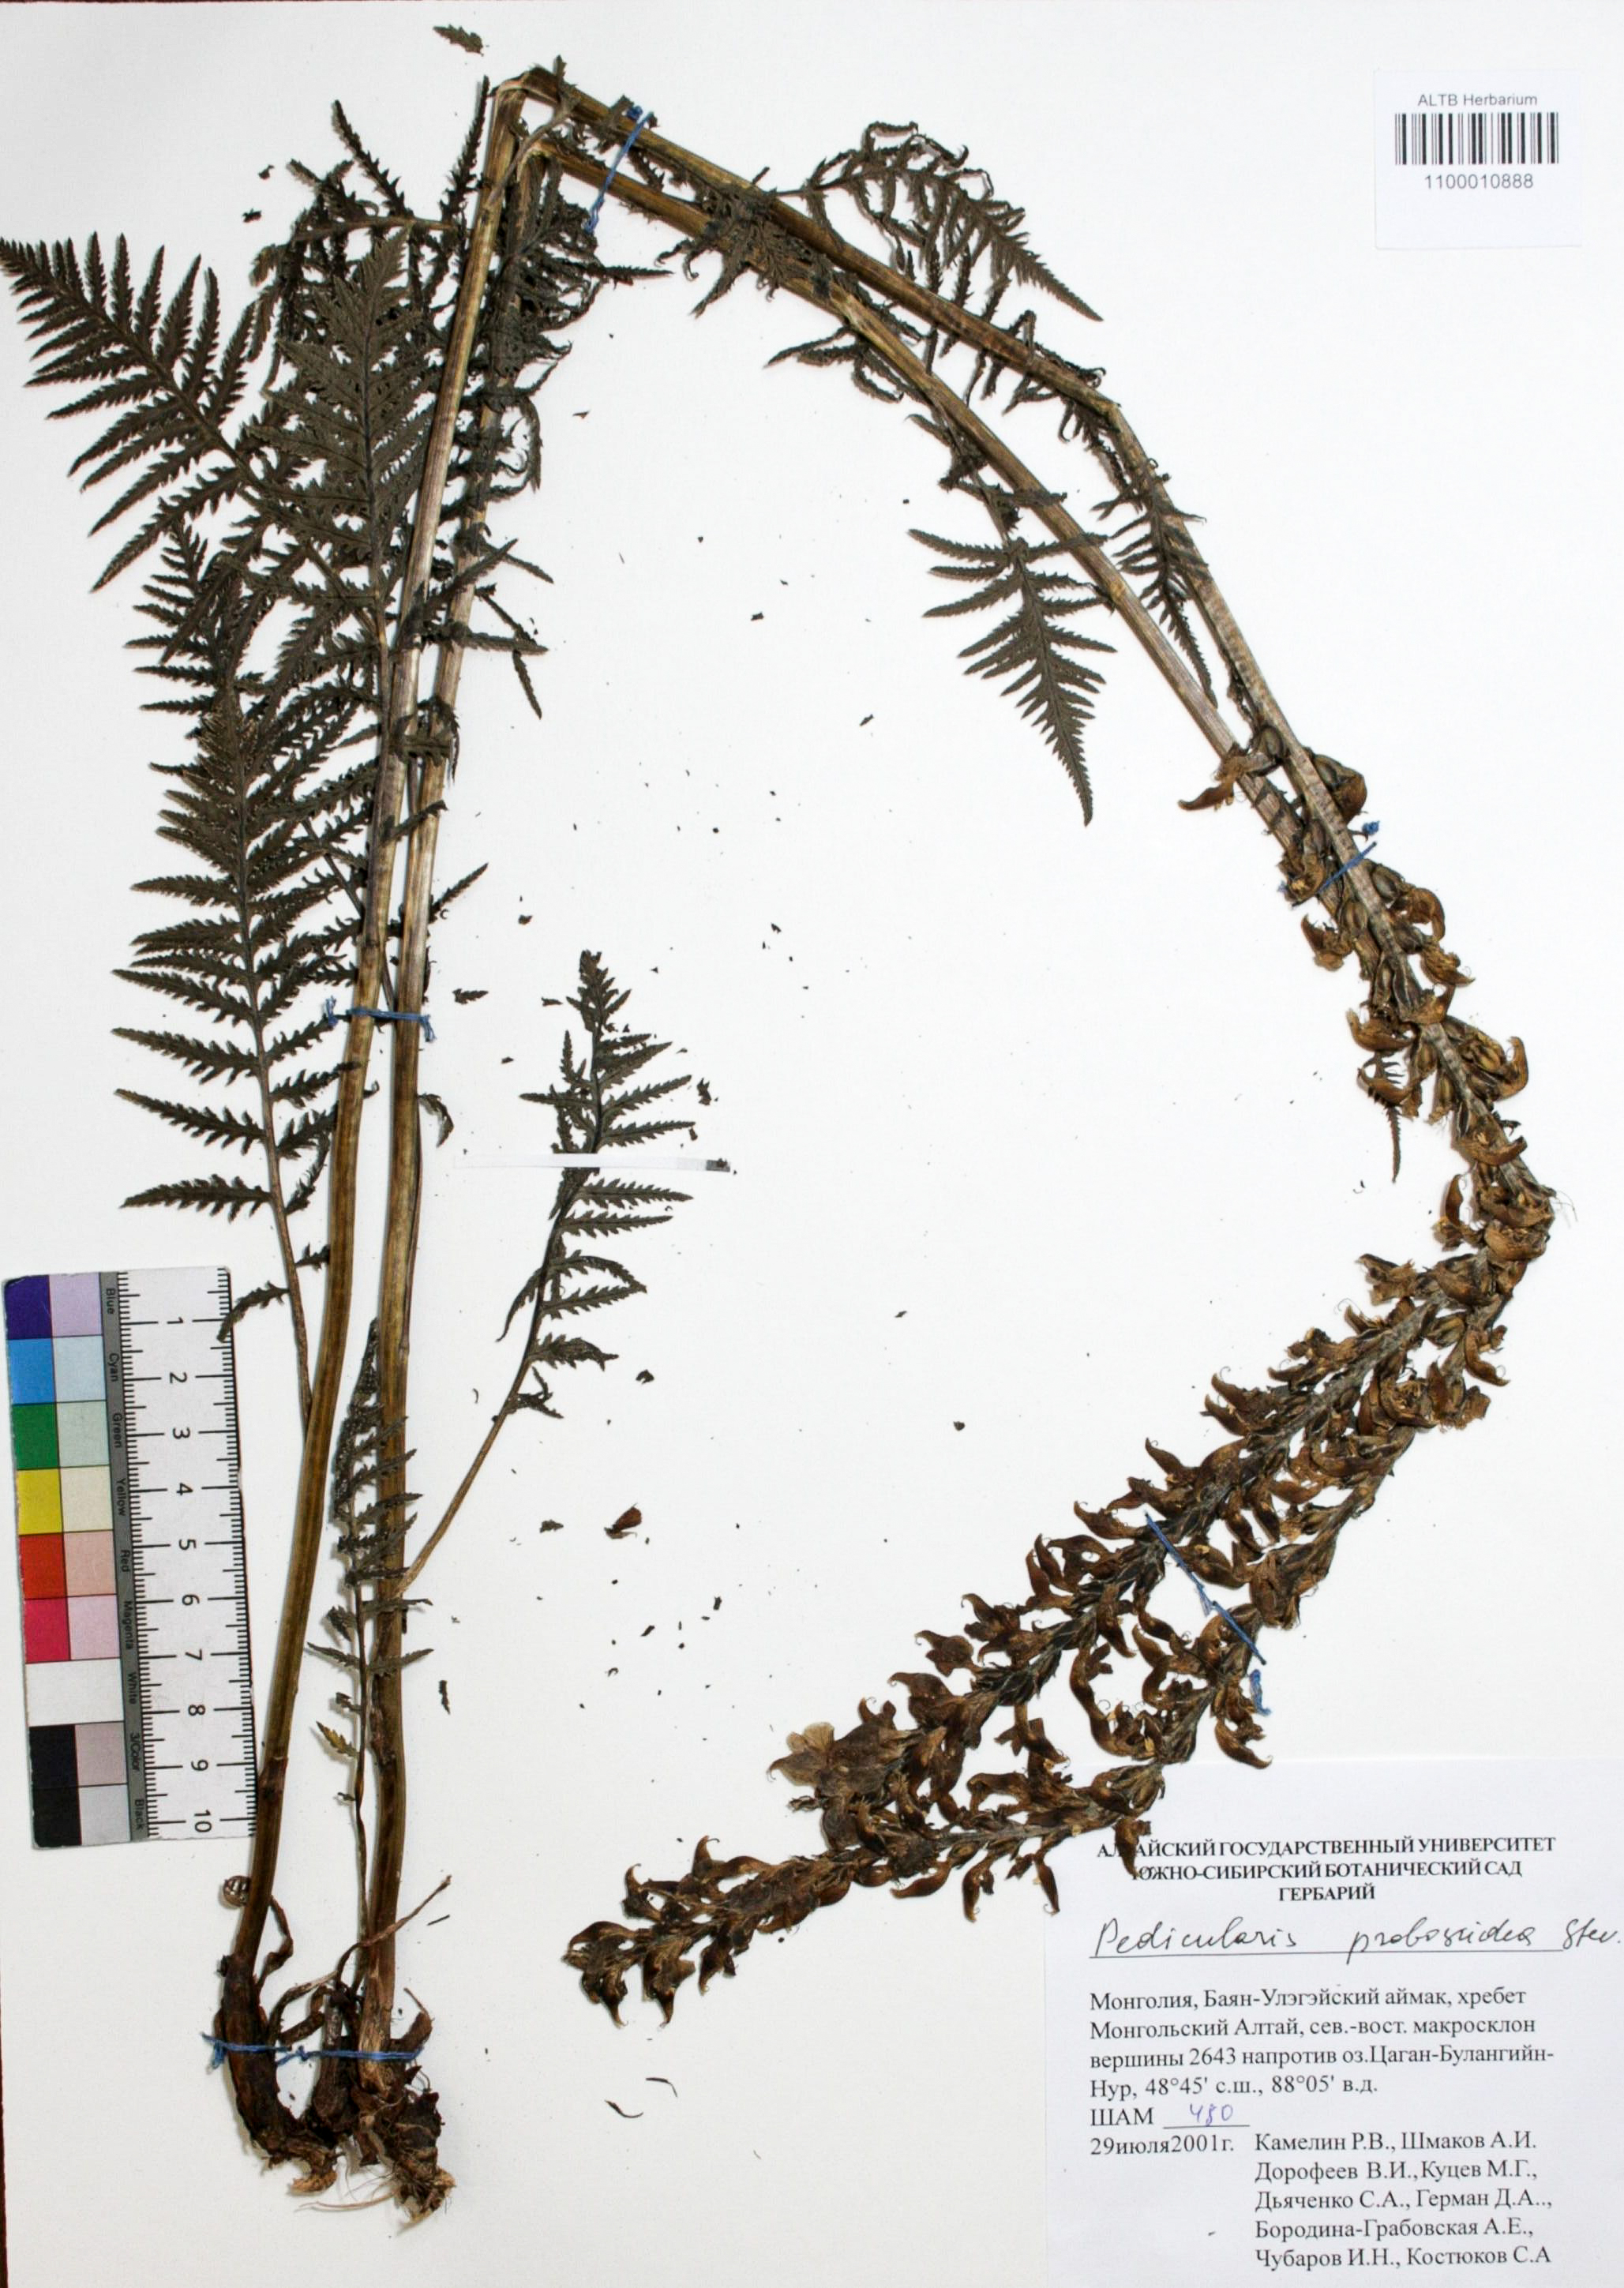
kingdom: Plantae
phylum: Tracheophyta
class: Magnoliopsida
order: Lamiales
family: Orobanchaceae
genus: Pedicularis
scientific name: Pedicularis proboscidea
